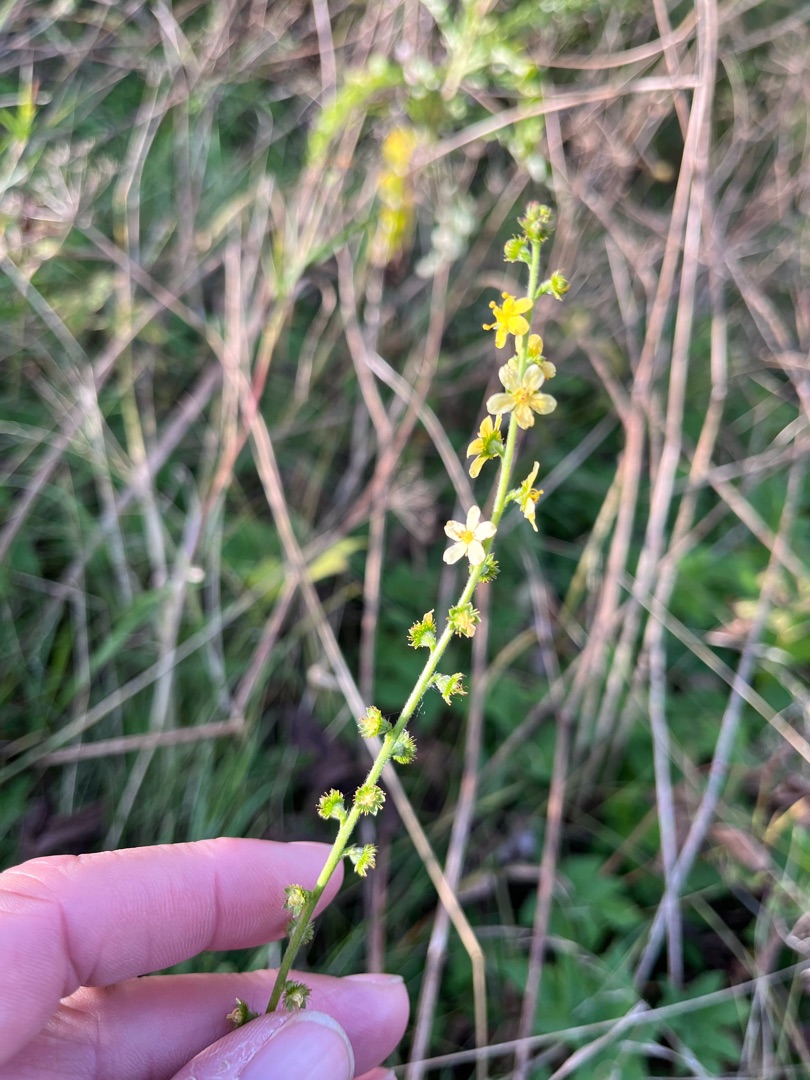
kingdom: Plantae
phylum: Tracheophyta
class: Magnoliopsida
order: Rosales
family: Rosaceae
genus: Agrimonia
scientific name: Agrimonia
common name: Almindelig agermåne × vellugtende agermåne
